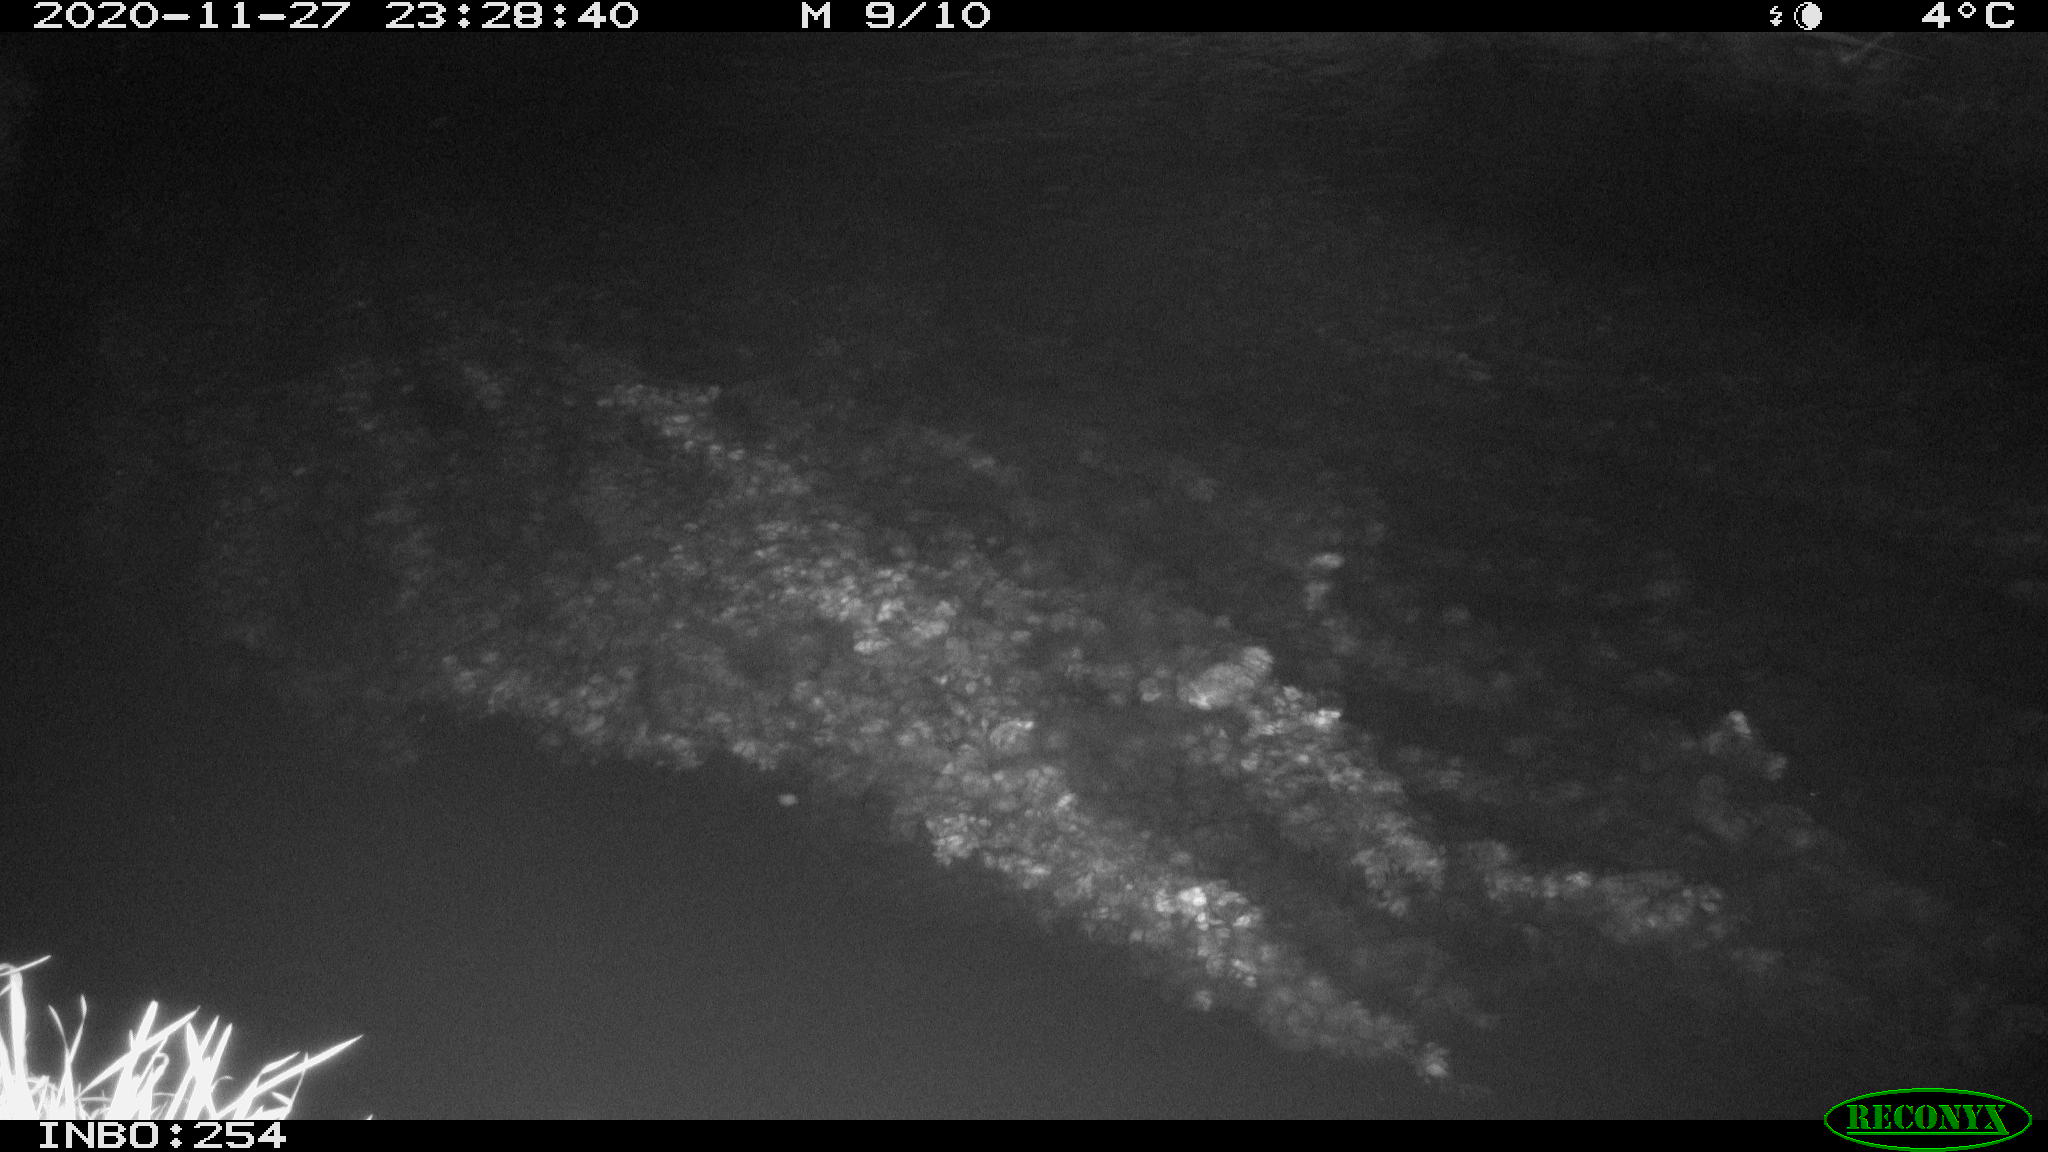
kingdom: Animalia
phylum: Chordata
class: Aves
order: Anseriformes
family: Anatidae
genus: Anas
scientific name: Anas platyrhynchos
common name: Mallard
